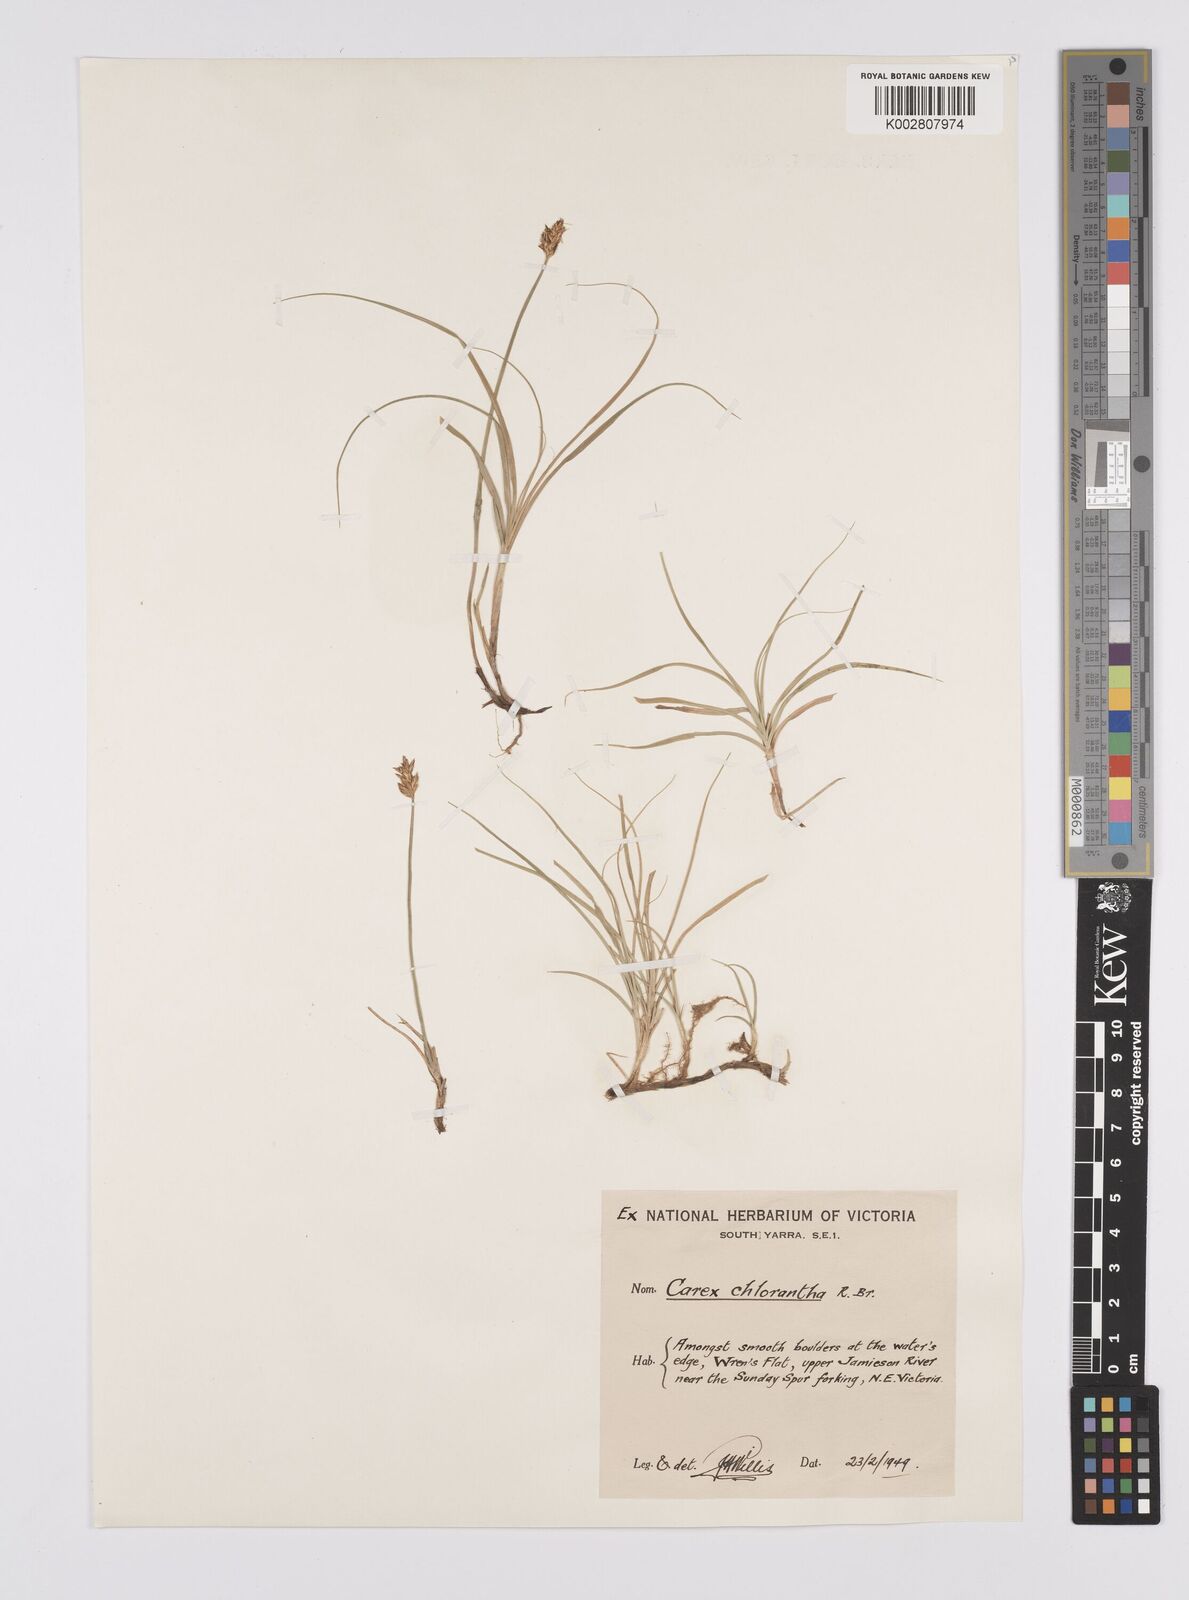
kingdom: Plantae
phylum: Tracheophyta
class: Liliopsida
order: Poales
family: Cyperaceae
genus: Carex
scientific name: Carex chlorantha
